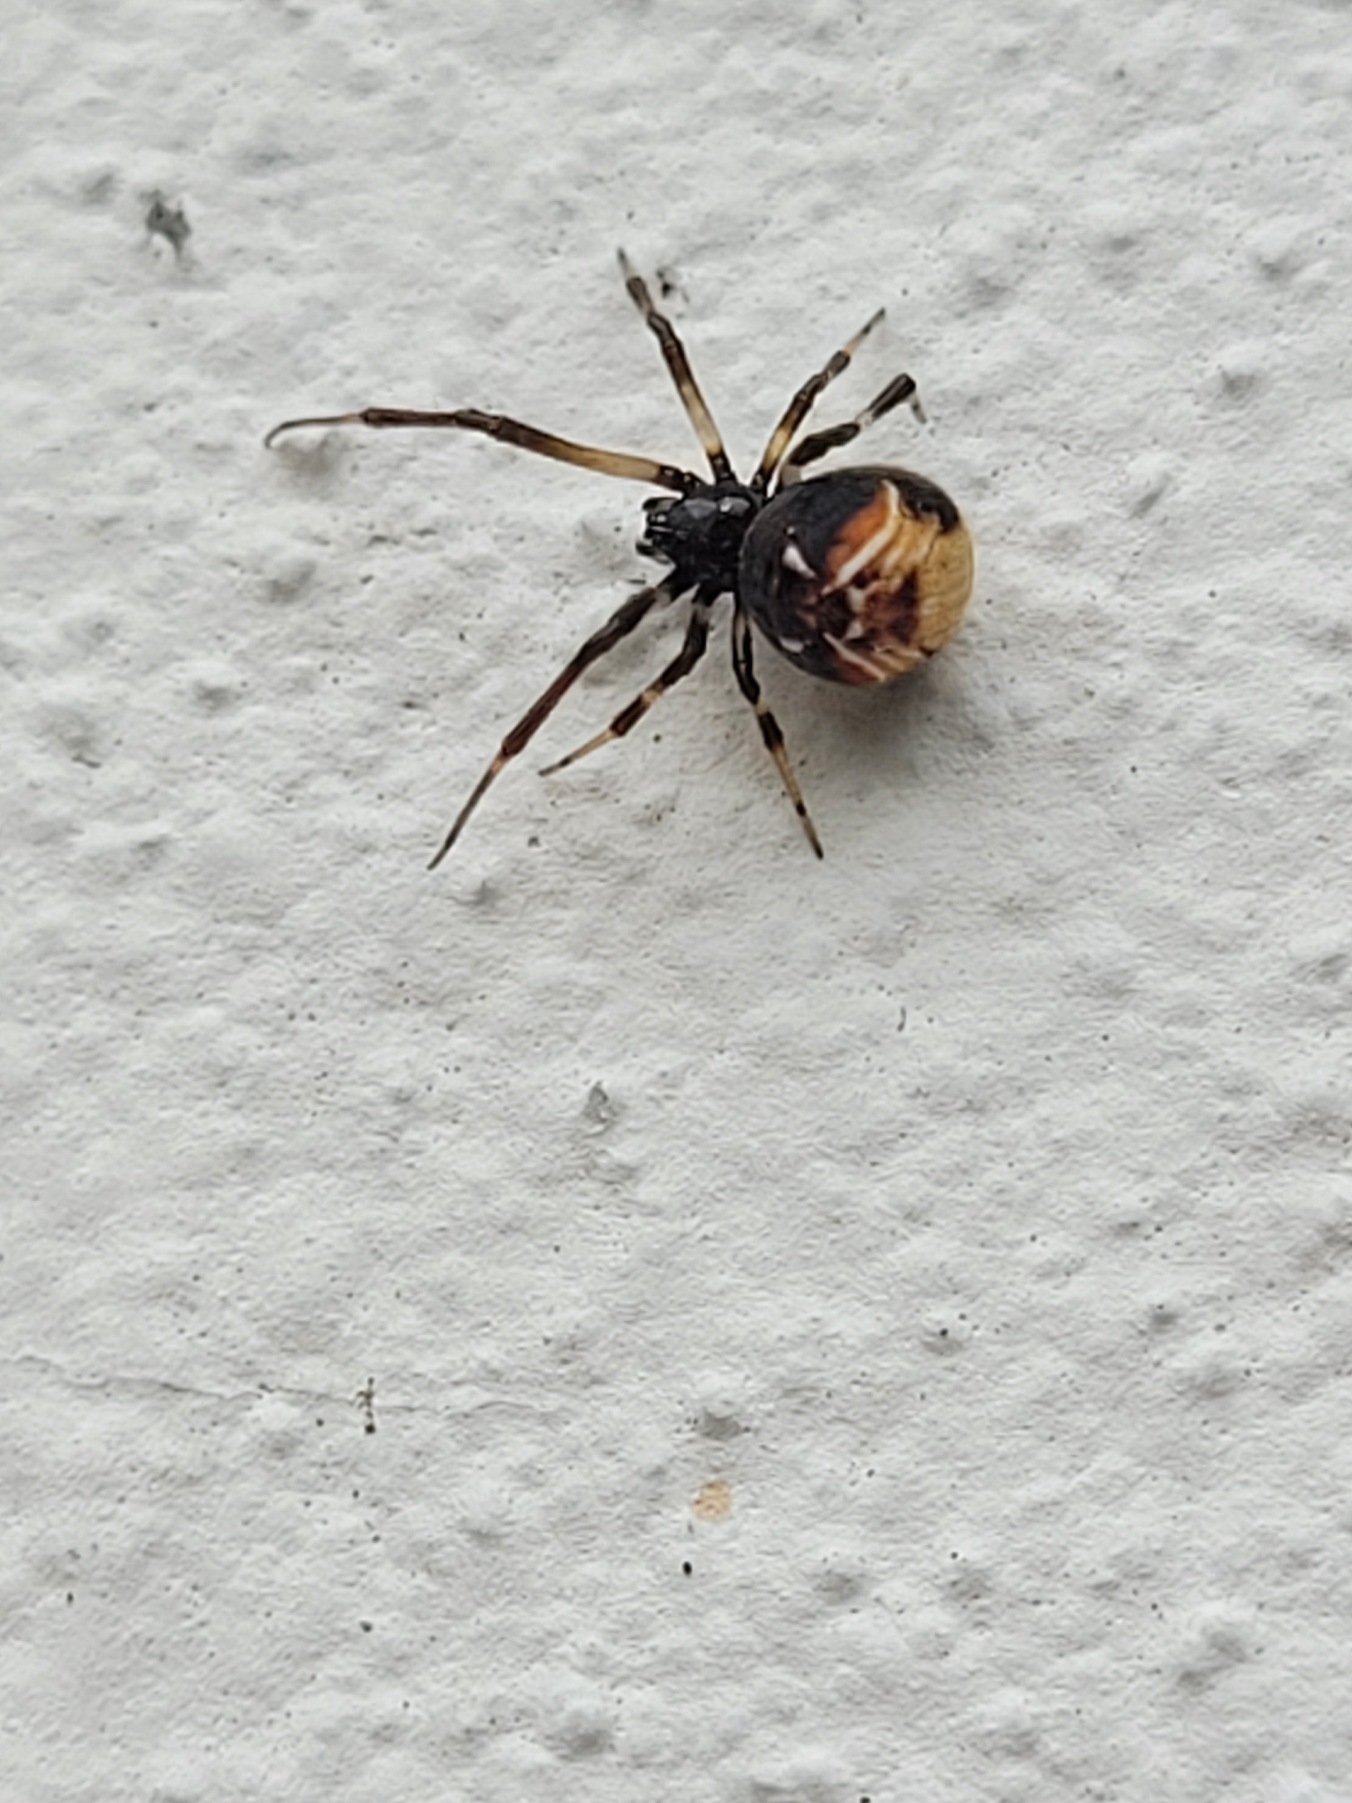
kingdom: Animalia
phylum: Arthropoda
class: Arachnida
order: Araneae
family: Theridiidae
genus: Parasteatoda
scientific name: Parasteatoda lunata
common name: Bladhyttespinder
